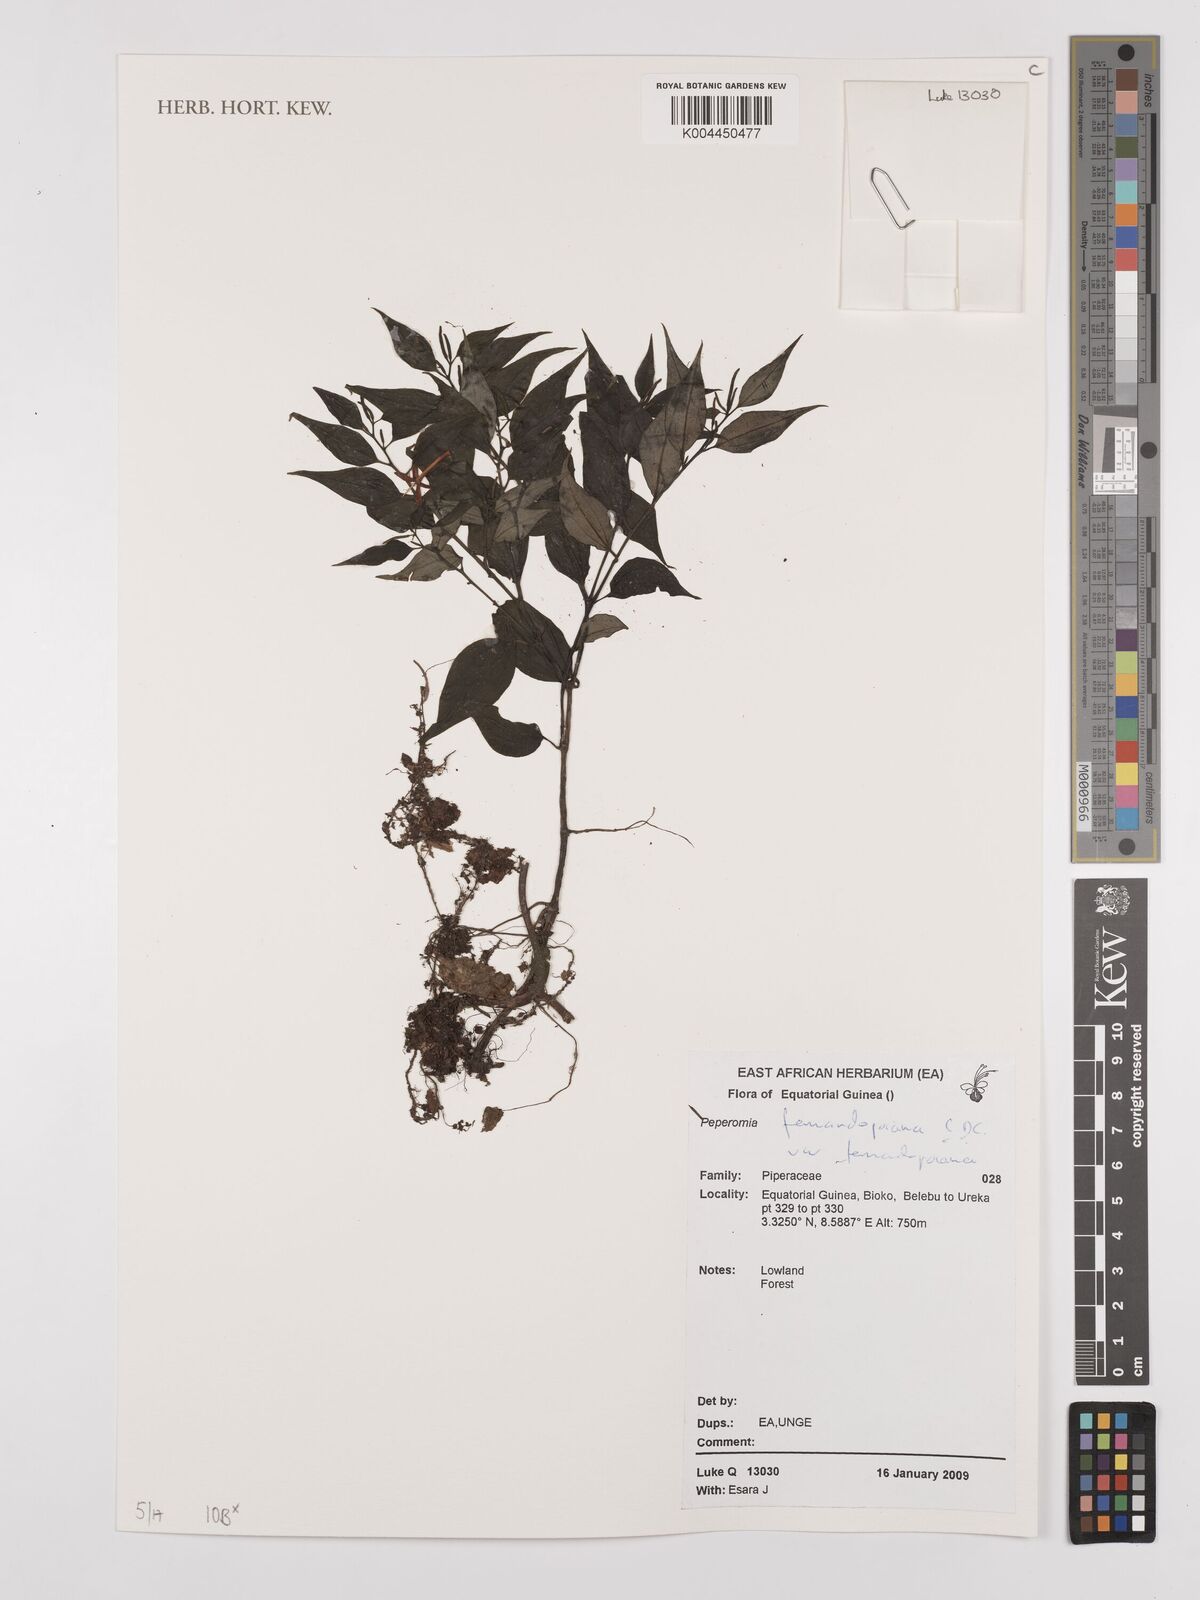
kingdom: Plantae
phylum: Tracheophyta
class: Magnoliopsida
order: Piperales
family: Piperaceae
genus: Peperomia
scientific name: Peperomia fernandopoiana
